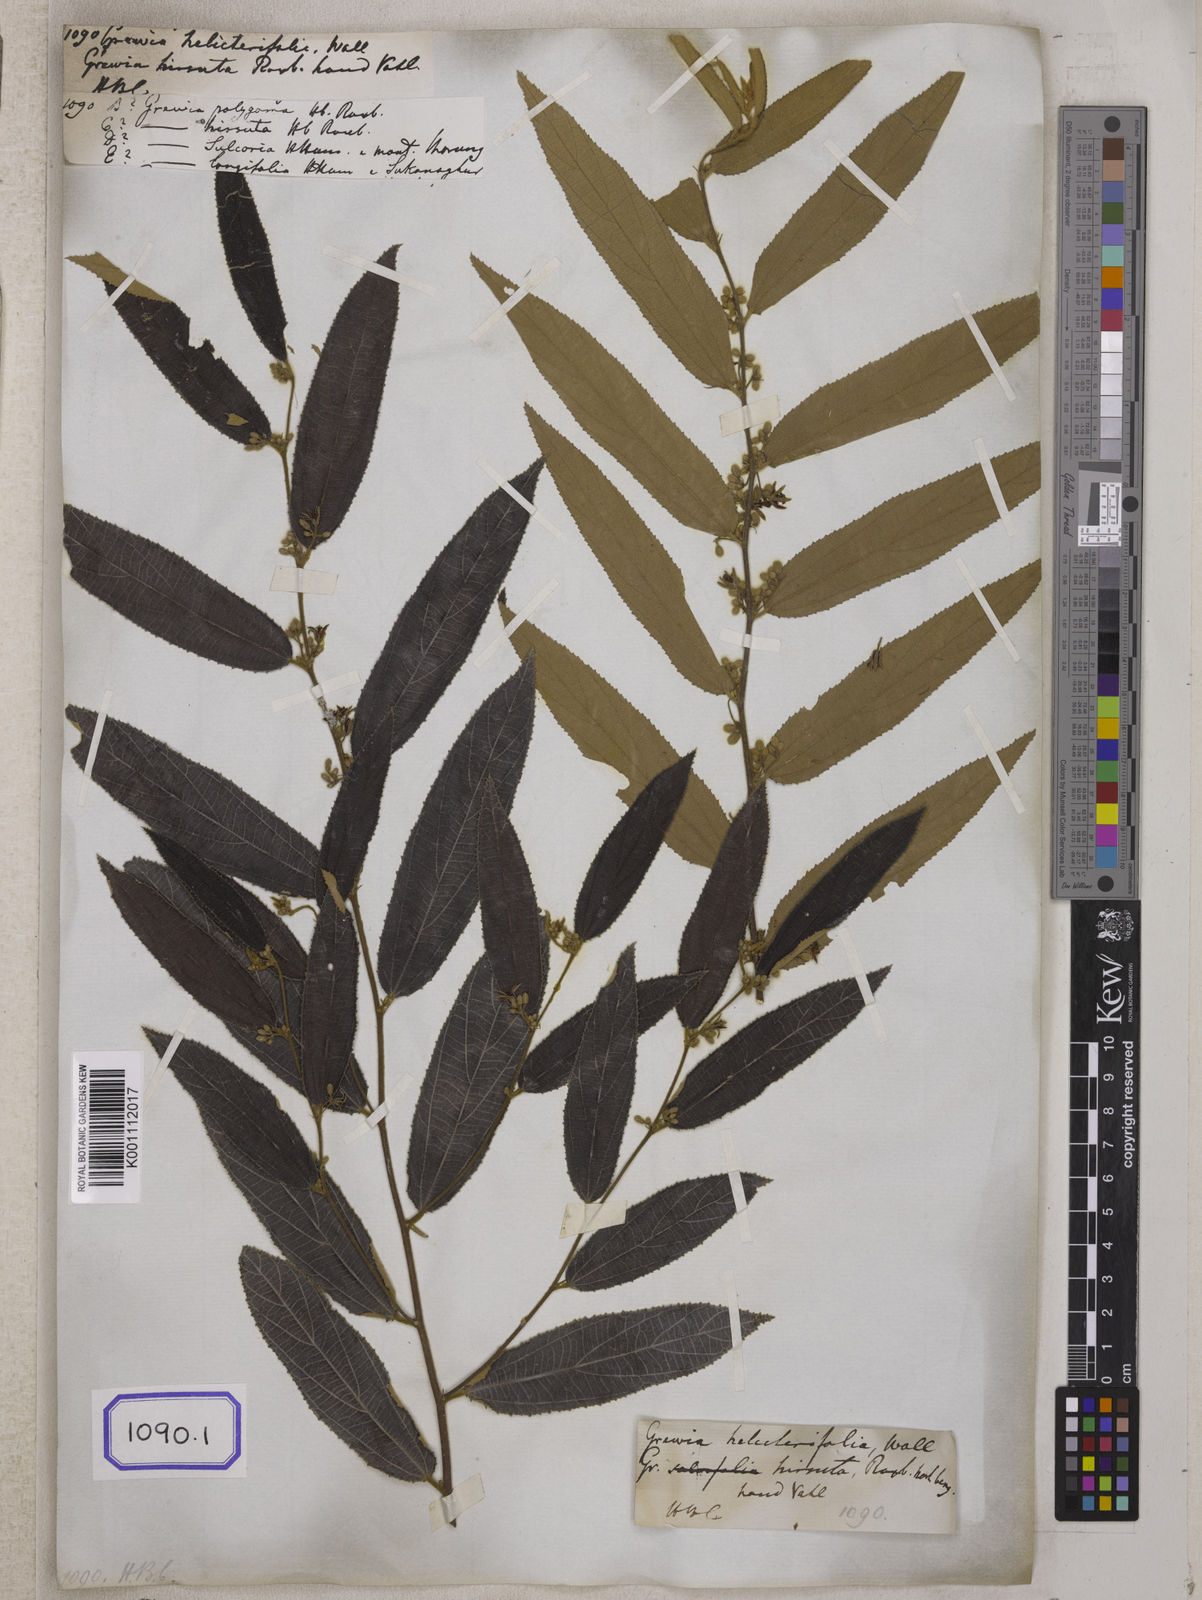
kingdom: Plantae
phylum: Tracheophyta
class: Magnoliopsida
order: Malvales
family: Malvaceae
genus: Grewia
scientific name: Grewia
